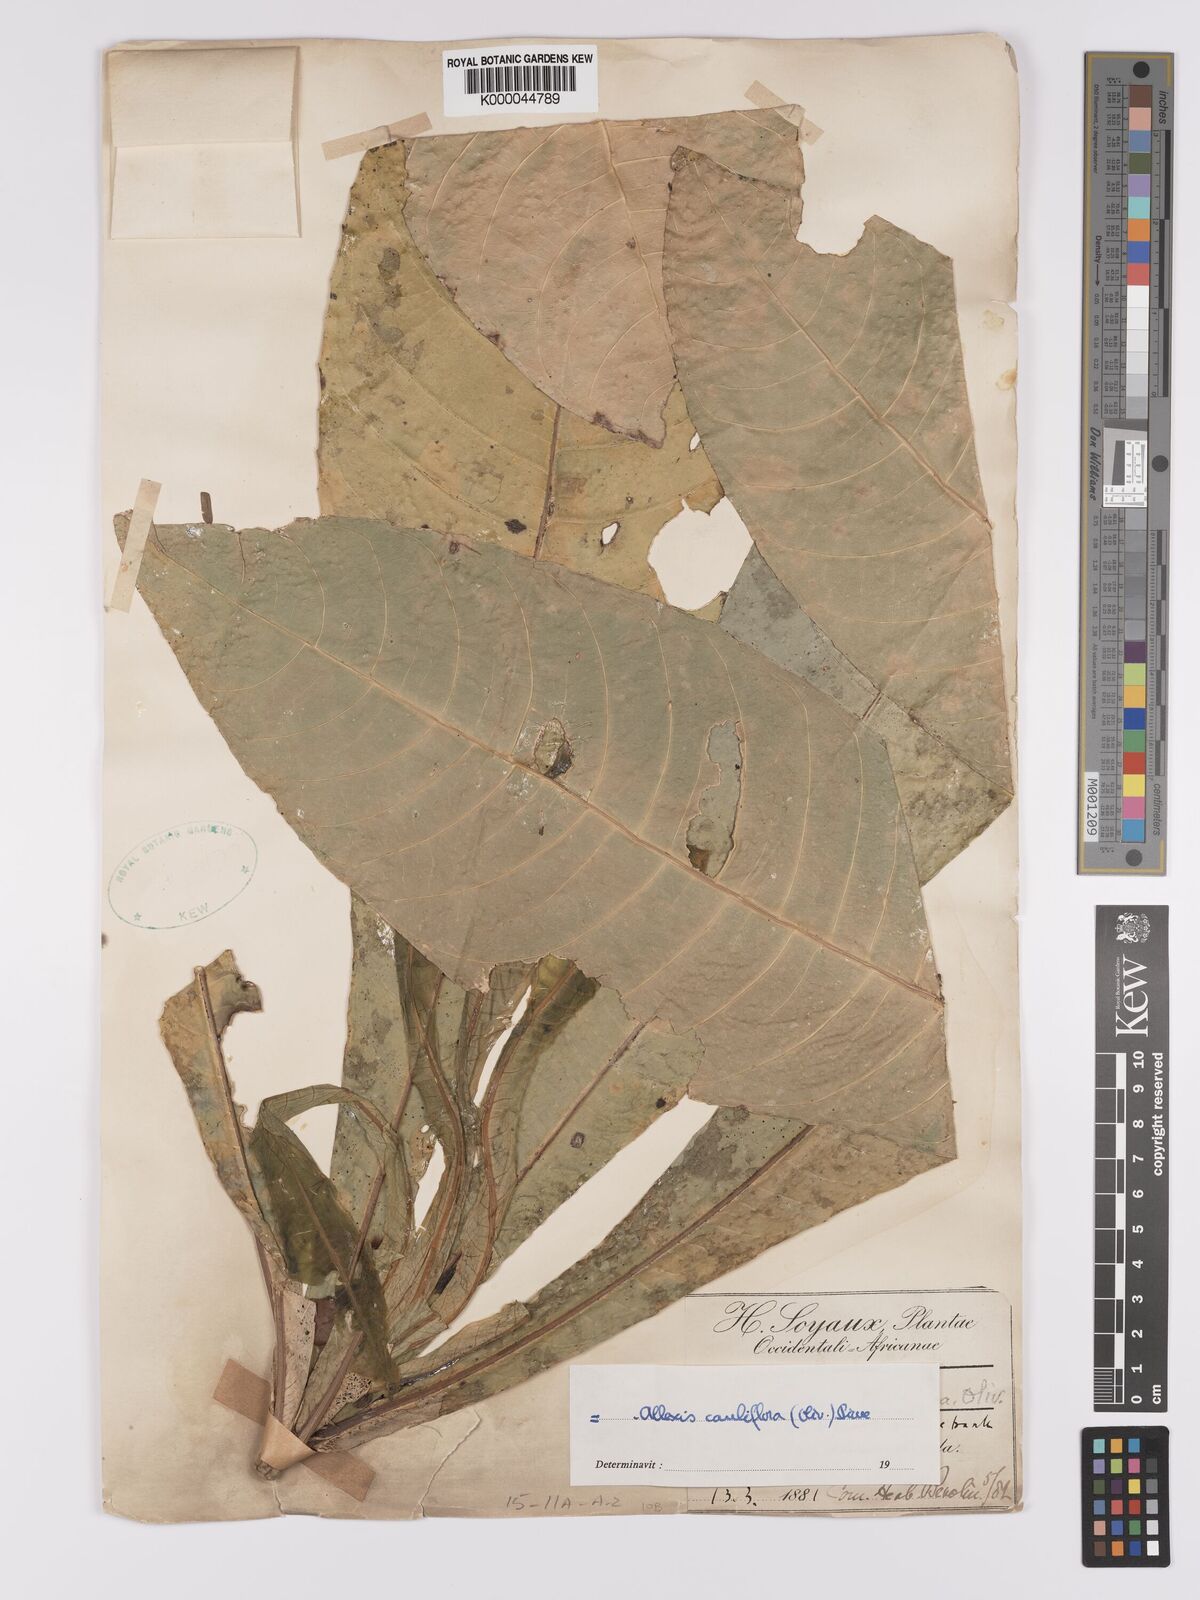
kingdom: Plantae
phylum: Tracheophyta
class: Magnoliopsida
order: Malpighiales
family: Violaceae
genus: Allexis
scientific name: Allexis cauliflora
